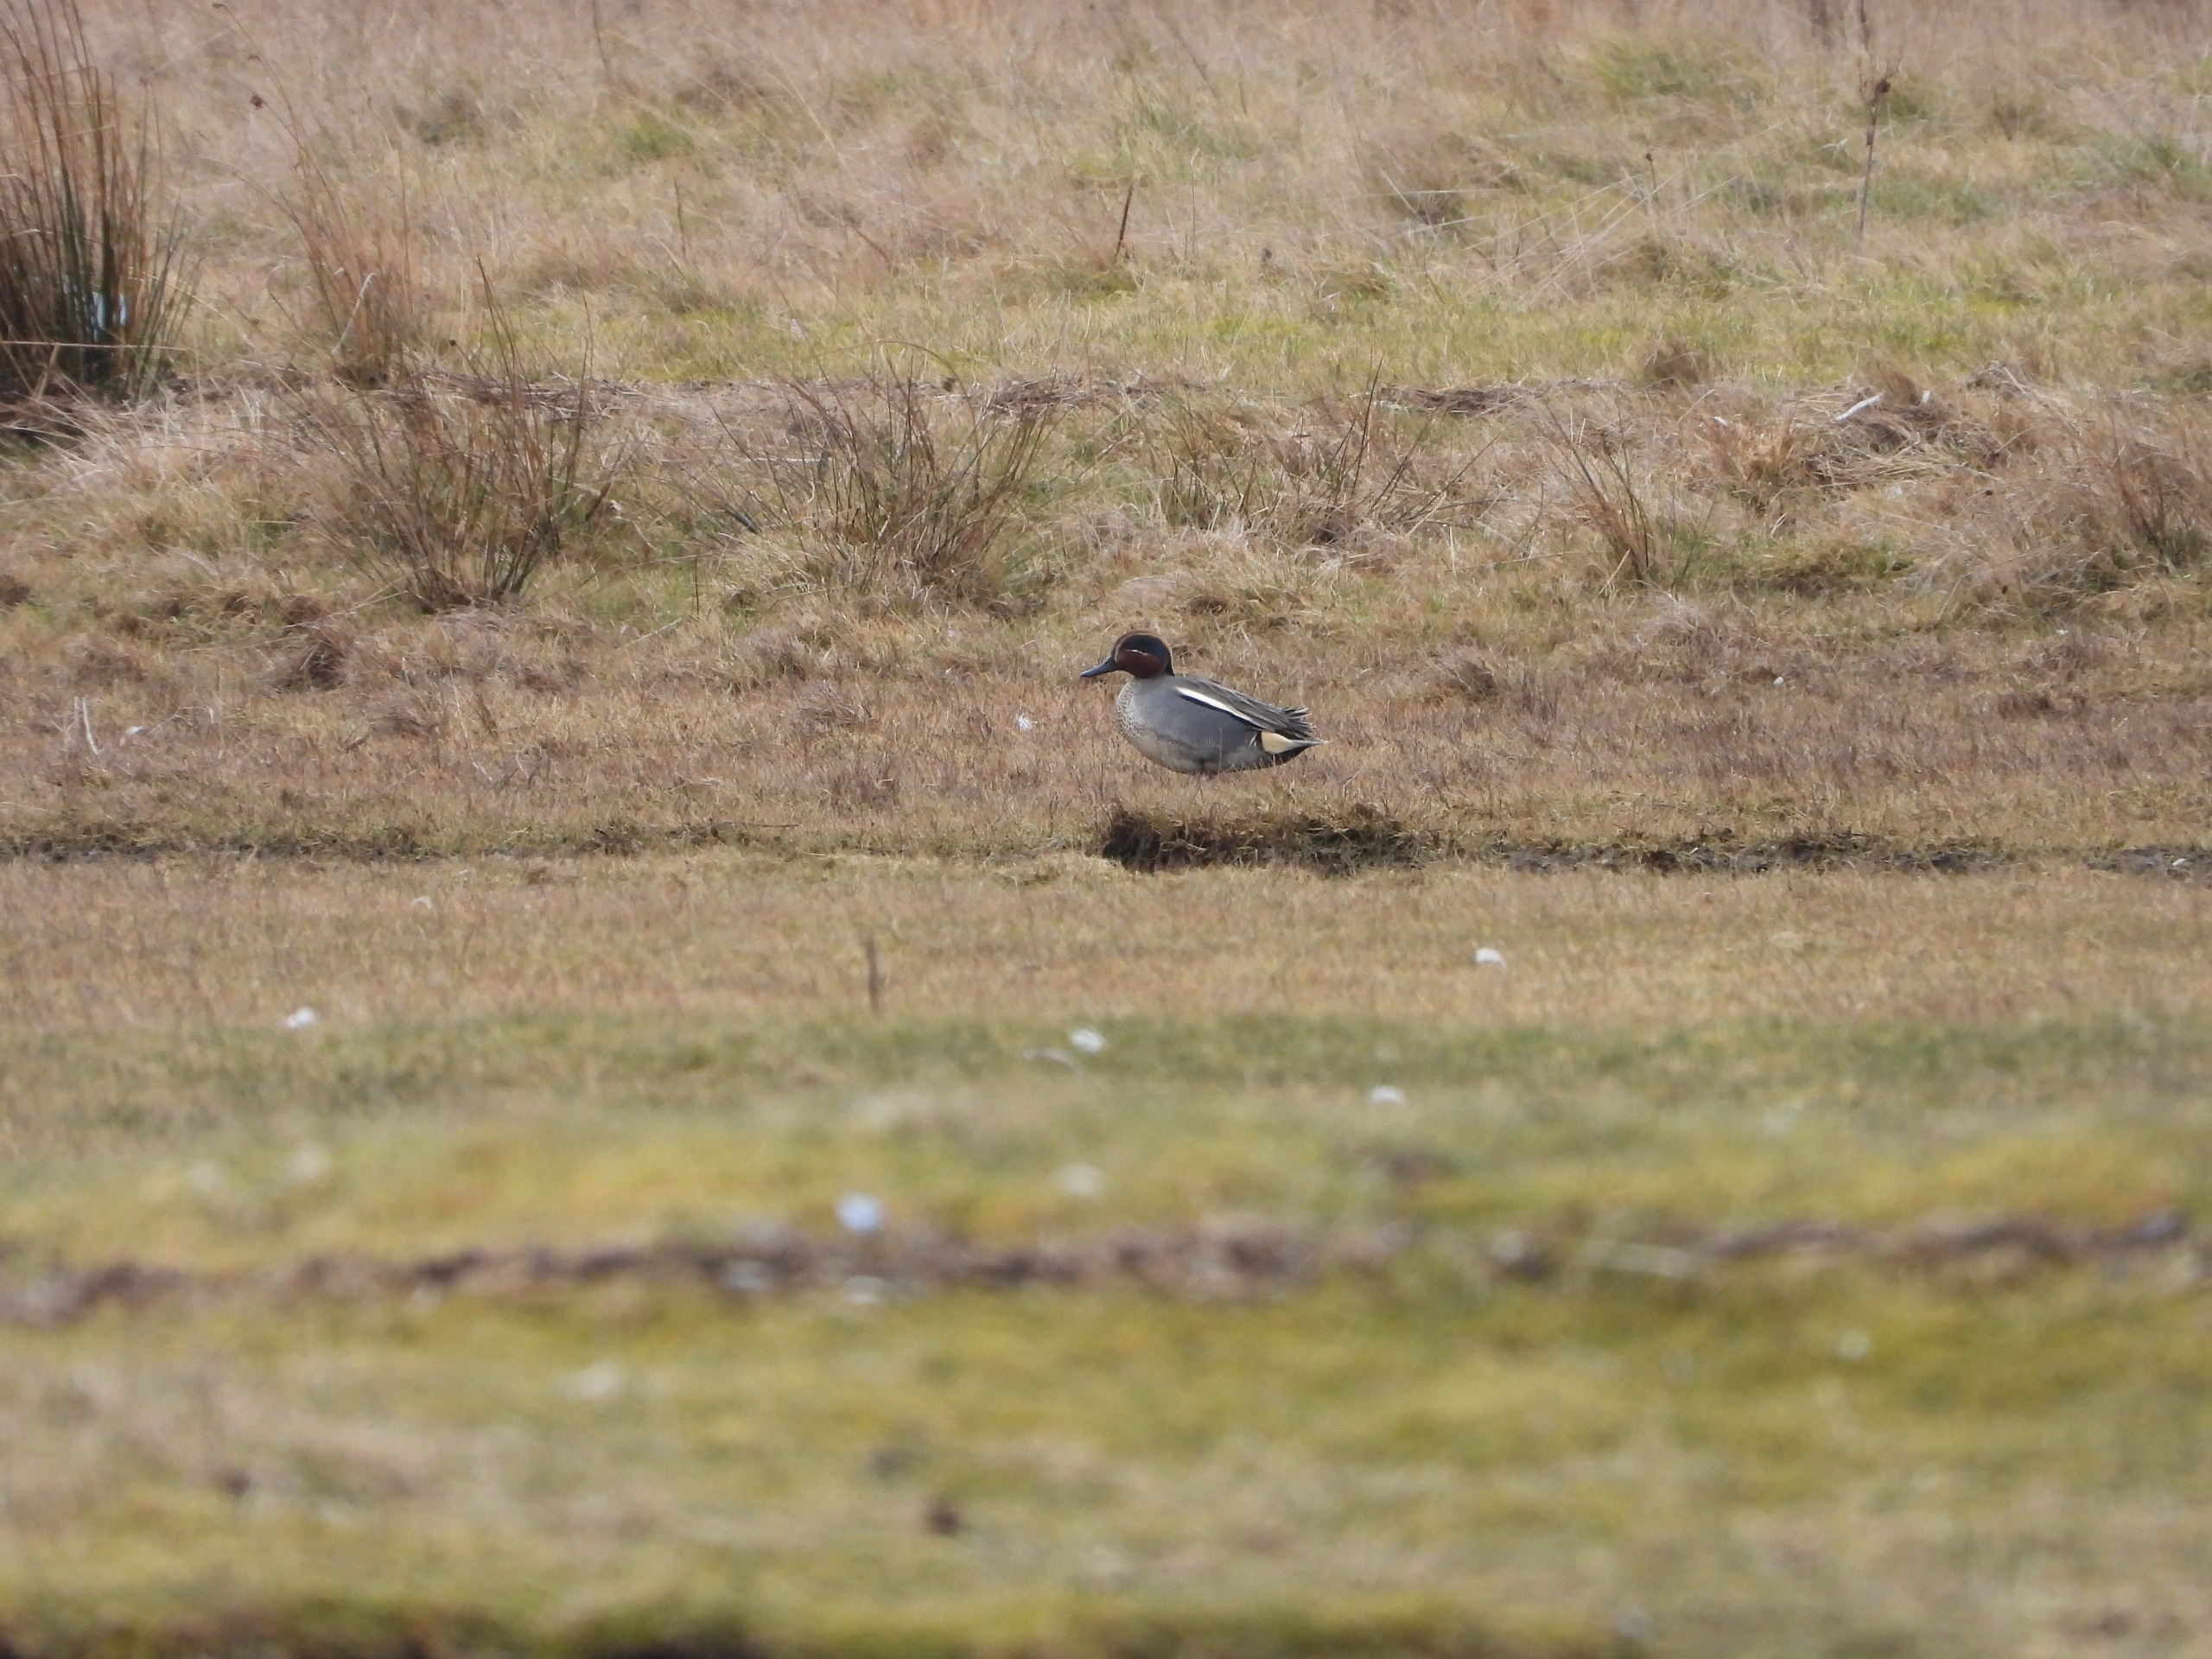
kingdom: Animalia
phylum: Chordata
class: Aves
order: Anseriformes
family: Anatidae
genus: Anas
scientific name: Anas crecca
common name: Krikand
